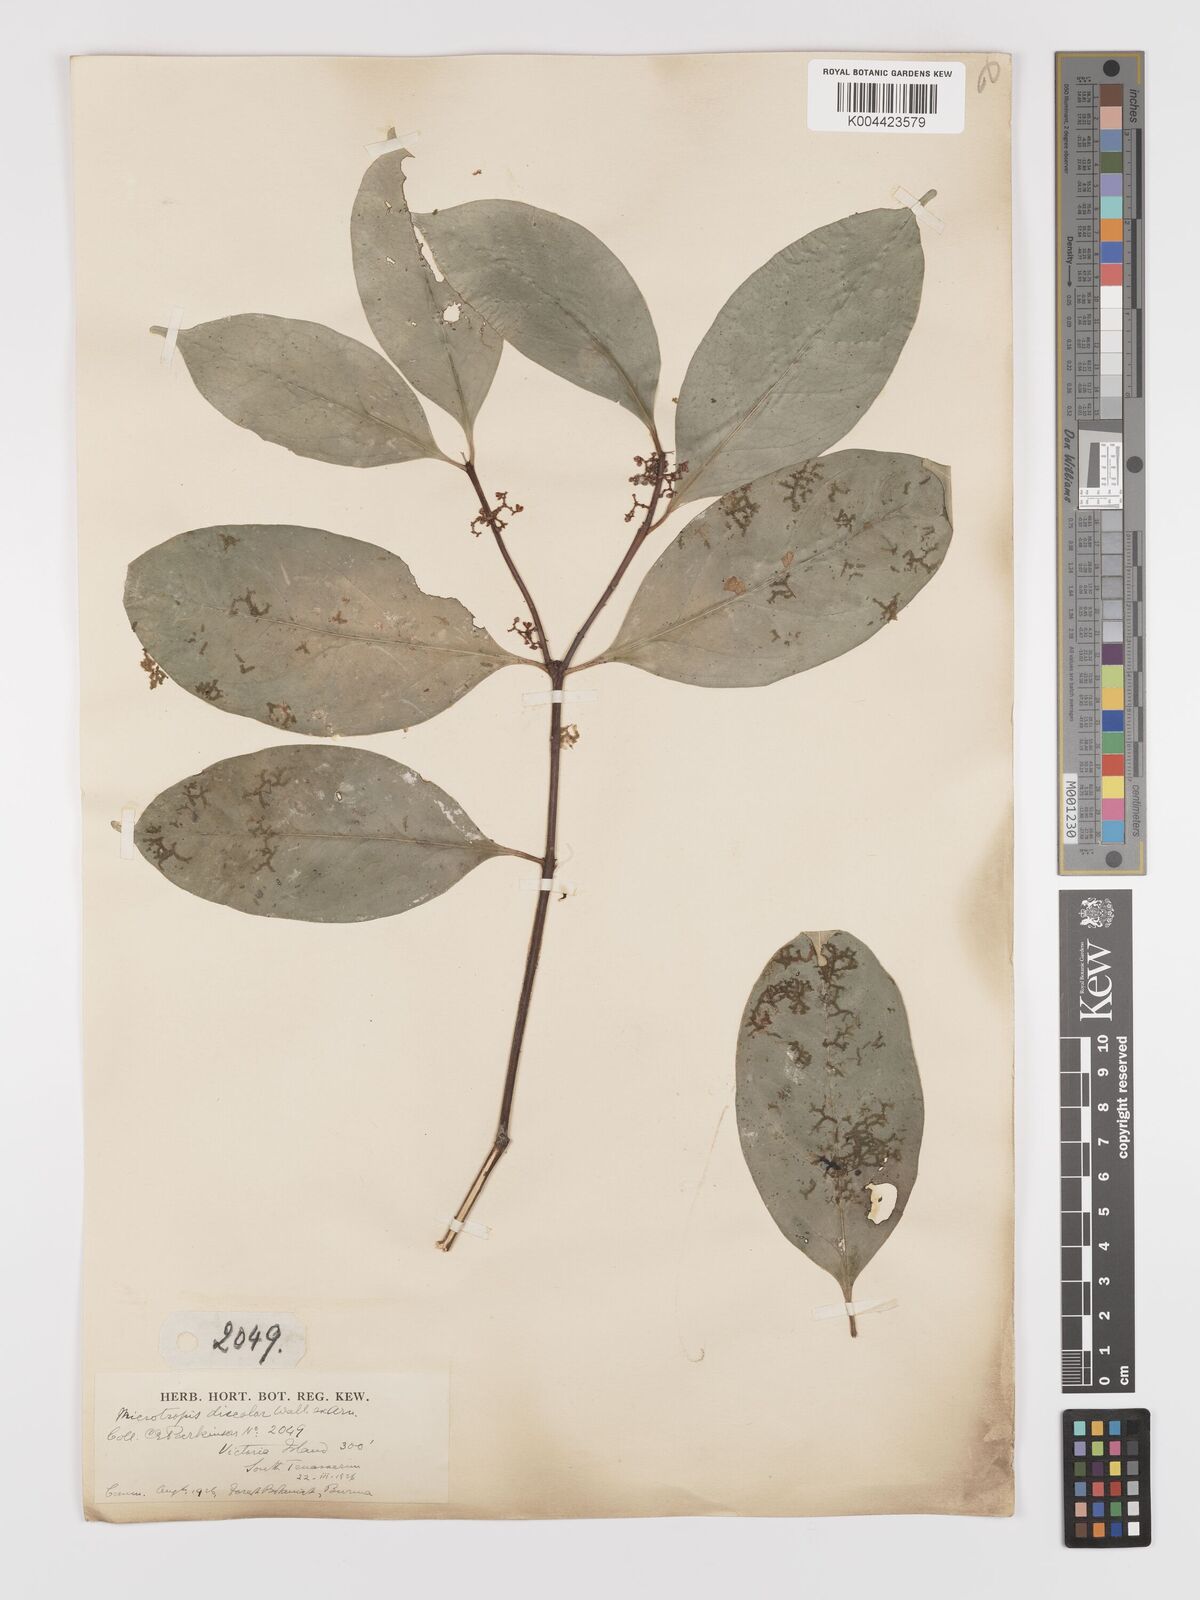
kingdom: Plantae
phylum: Tracheophyta
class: Magnoliopsida
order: Celastrales
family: Celastraceae
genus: Microtropis
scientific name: Microtropis discolor
